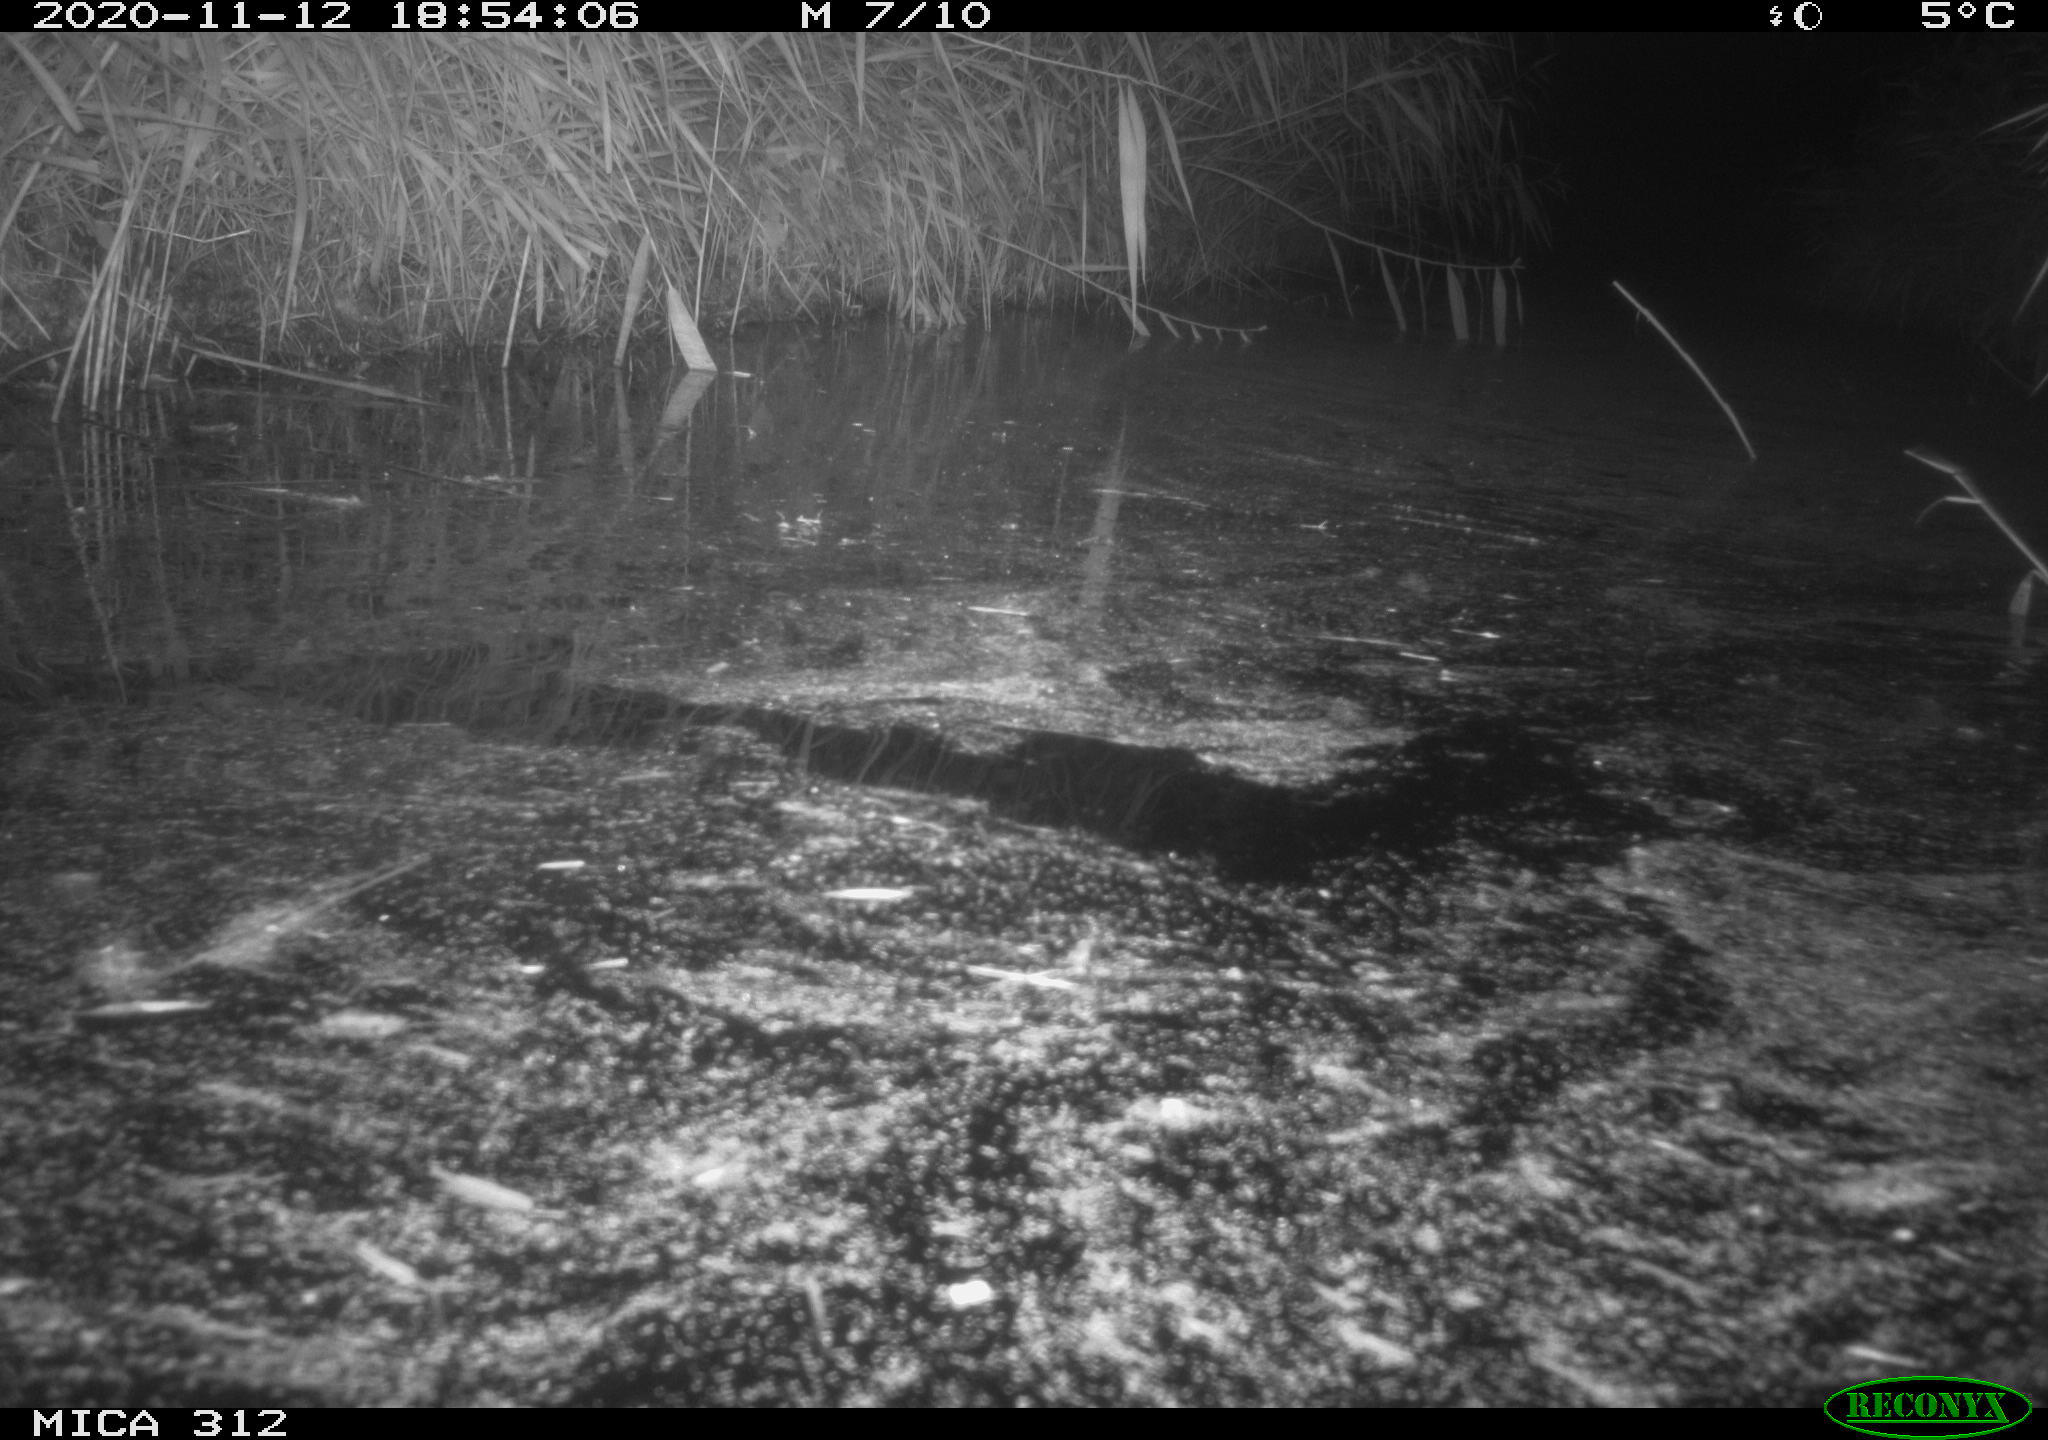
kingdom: Animalia
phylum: Chordata
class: Mammalia
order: Rodentia
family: Muridae
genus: Rattus
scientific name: Rattus norvegicus
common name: Brown rat
